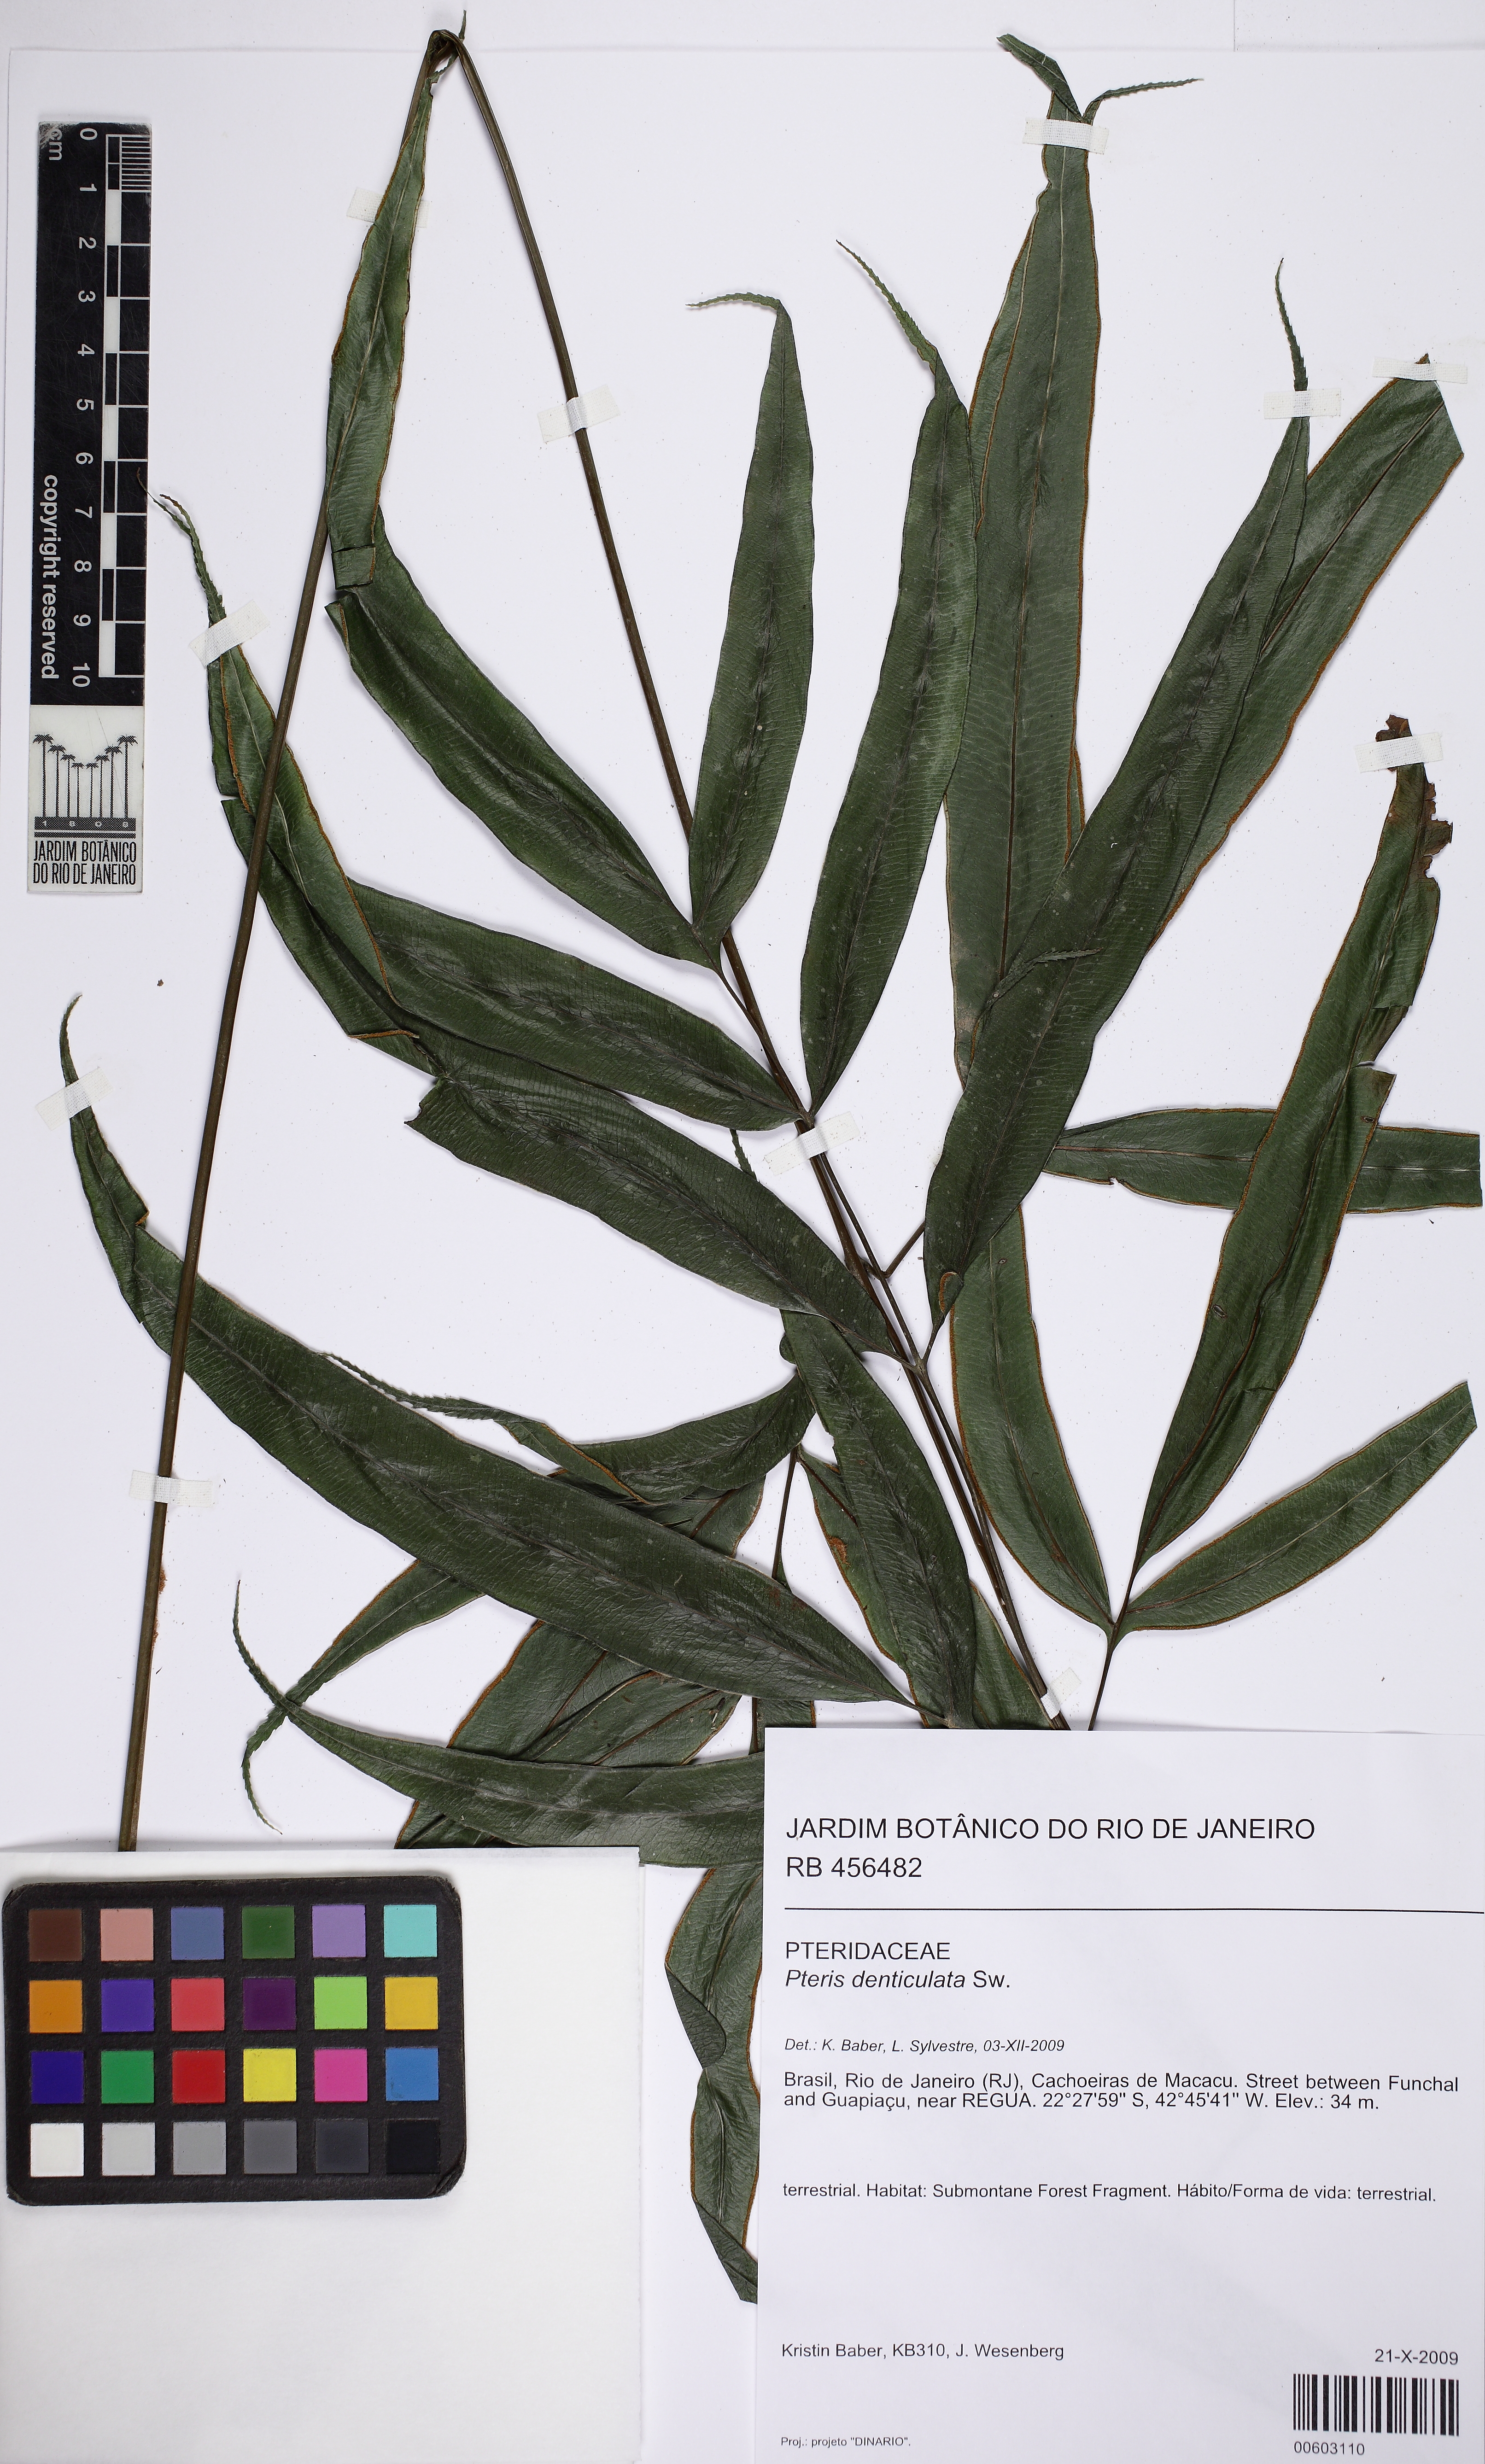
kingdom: Plantae
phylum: Tracheophyta
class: Polypodiopsida
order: Polypodiales
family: Pteridaceae
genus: Pteris
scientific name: Pteris brasiliensis
